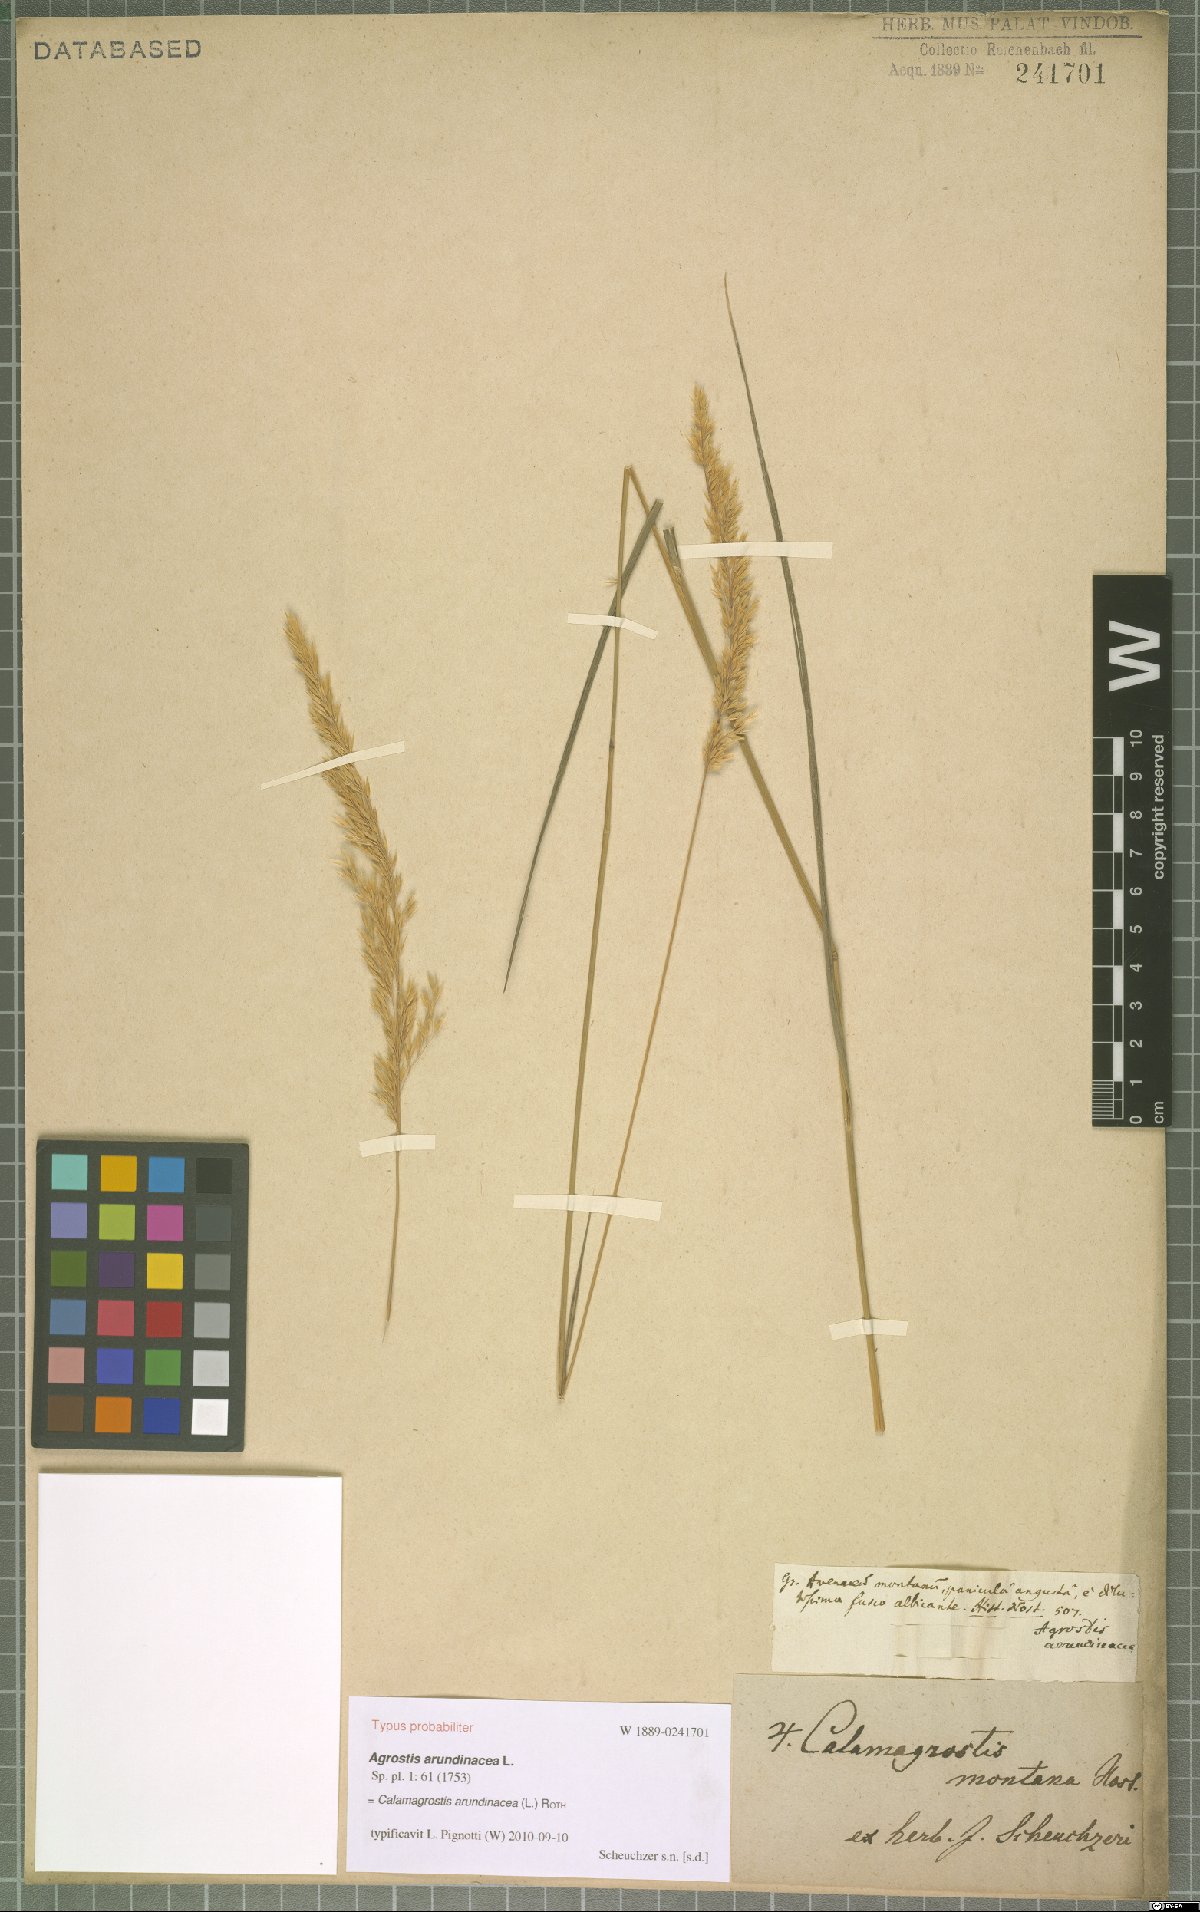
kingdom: Plantae
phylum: Tracheophyta
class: Liliopsida
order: Poales
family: Poaceae
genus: Calamagrostis
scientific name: Calamagrostis
